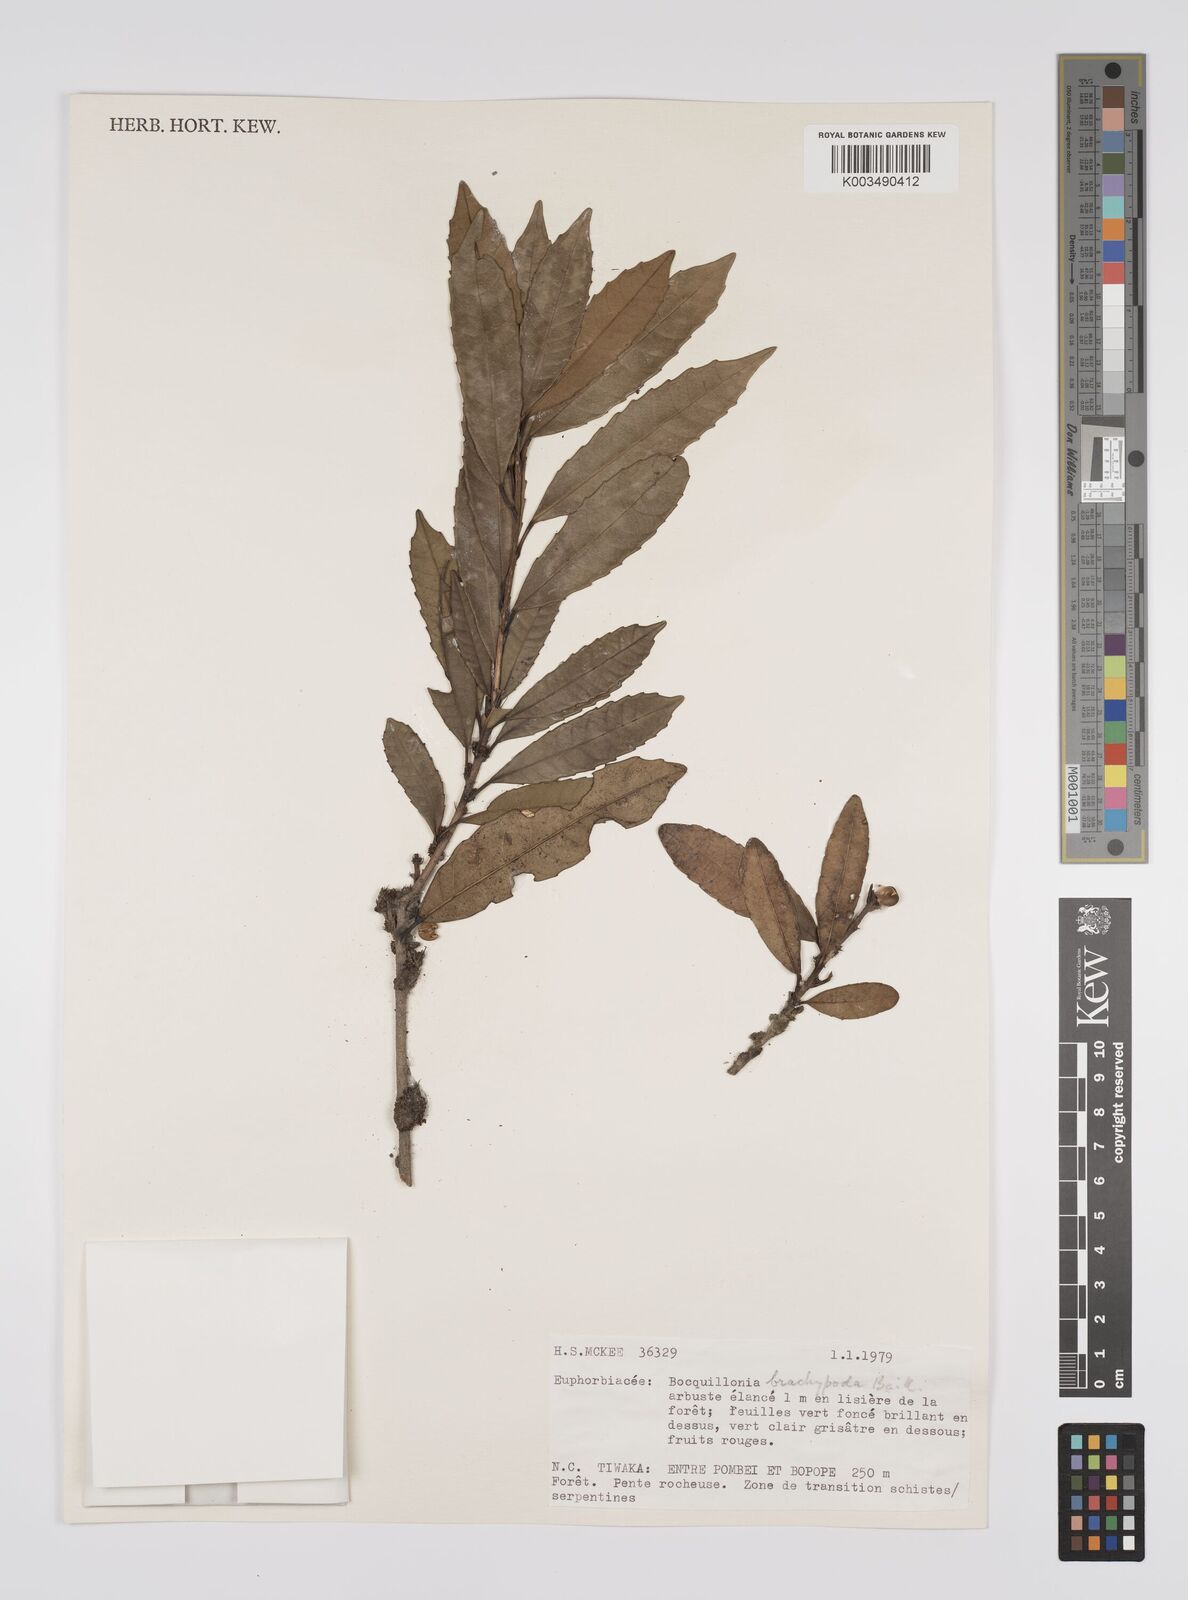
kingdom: Plantae
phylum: Tracheophyta
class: Magnoliopsida
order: Malpighiales
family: Euphorbiaceae
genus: Bocquillonia
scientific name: Bocquillonia brachypoda
